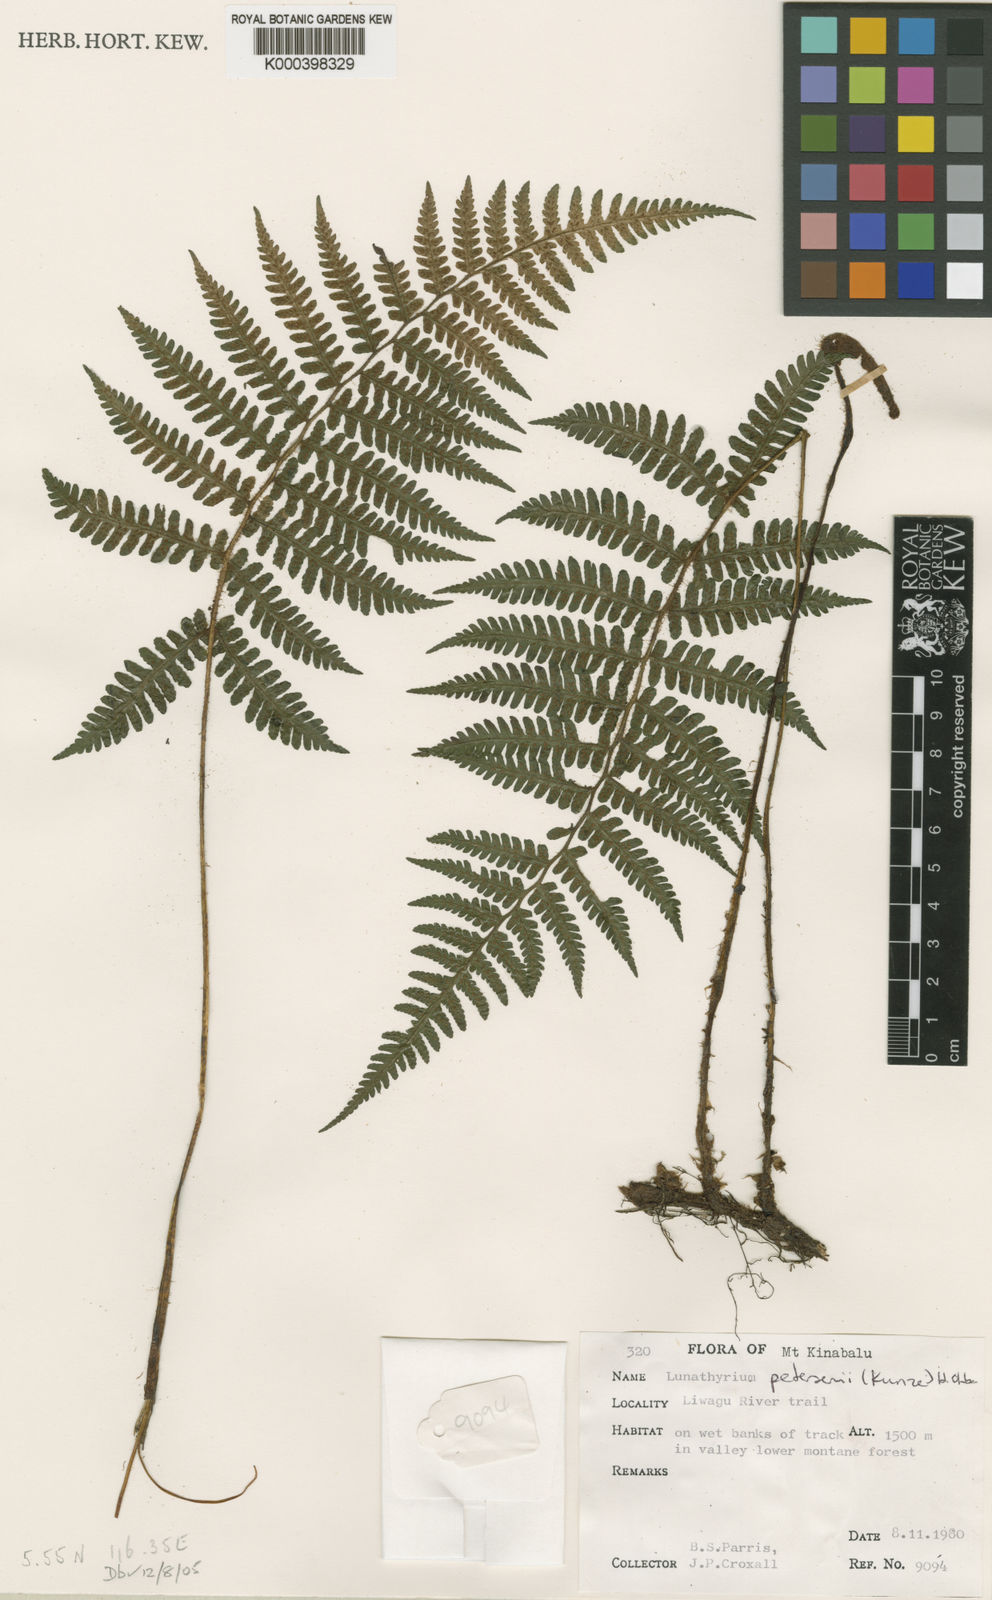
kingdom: Plantae
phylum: Tracheophyta
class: Polypodiopsida
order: Polypodiales
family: Athyriaceae
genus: Deparia
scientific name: Deparia petersenii
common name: Japanese false spleenwort
